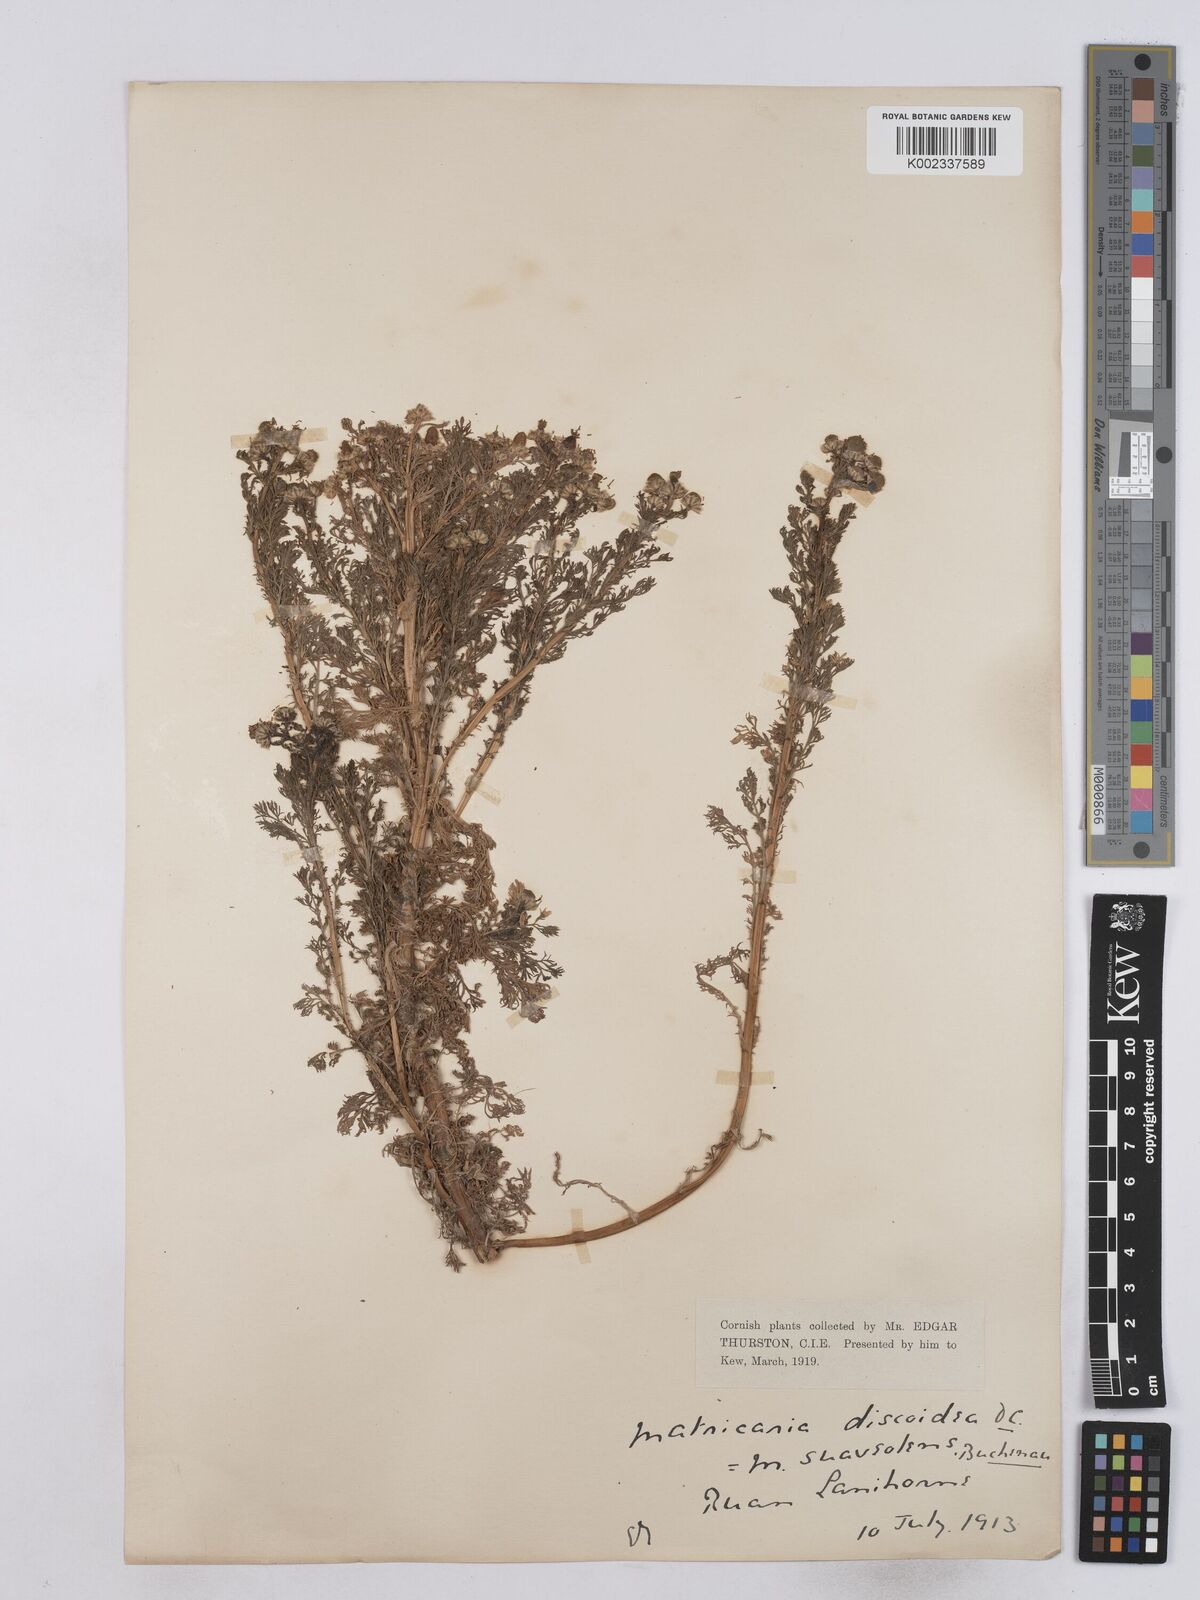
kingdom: Plantae
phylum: Tracheophyta
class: Magnoliopsida
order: Asterales
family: Asteraceae
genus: Matricaria
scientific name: Matricaria discoidea
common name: Disc mayweed
